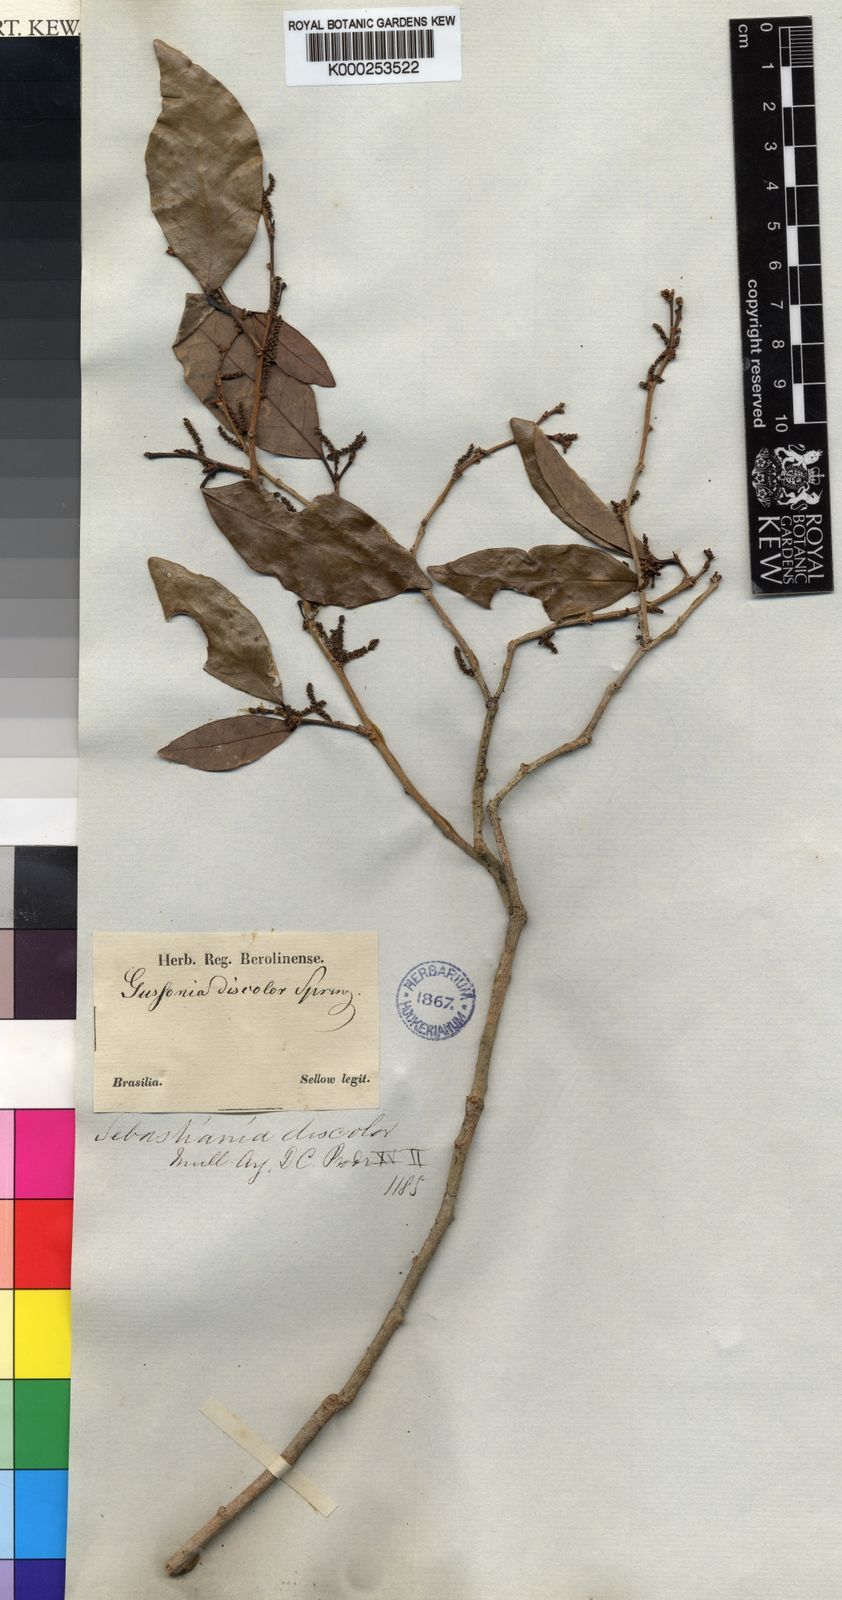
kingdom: Plantae
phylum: Tracheophyta
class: Magnoliopsida
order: Malpighiales
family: Euphorbiaceae
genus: Gymnanthes
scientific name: Gymnanthes
